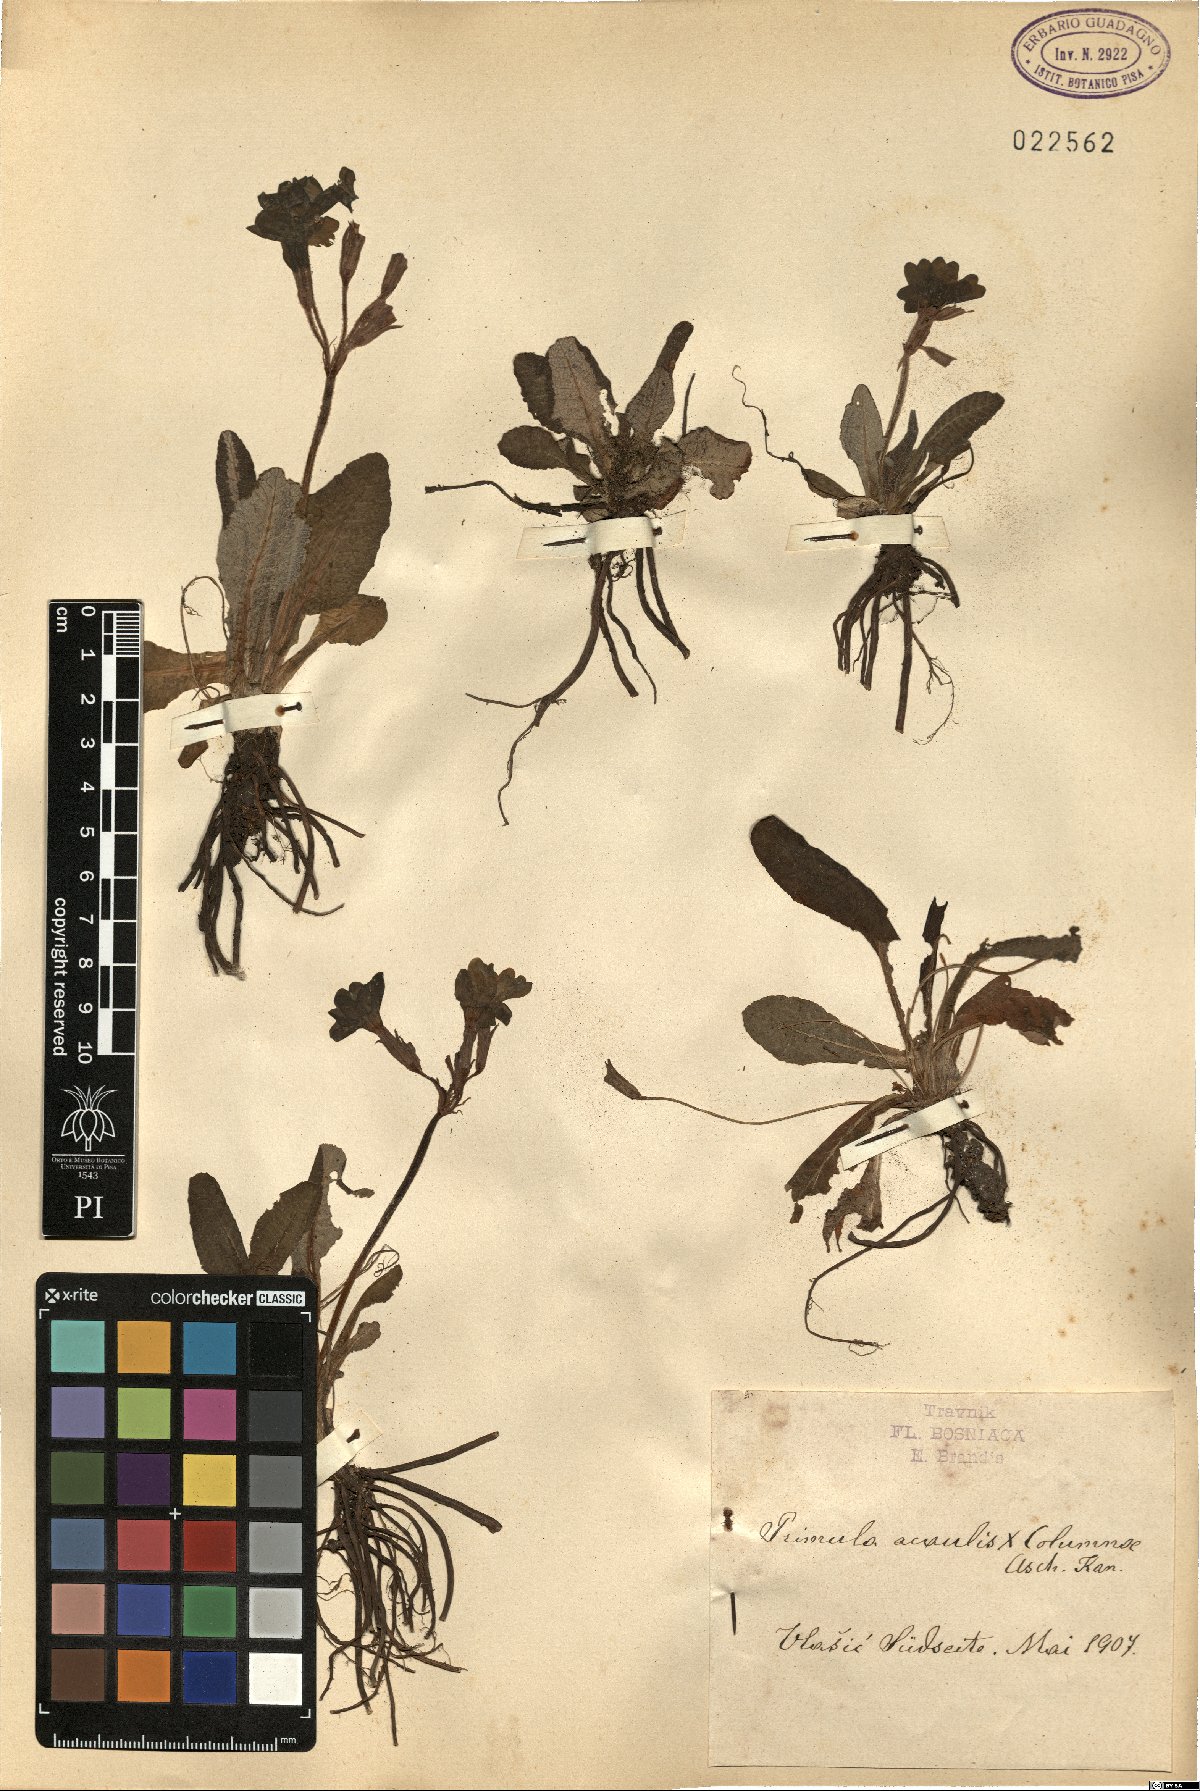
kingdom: Plantae
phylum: Tracheophyta
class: Magnoliopsida
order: Ericales
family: Primulaceae
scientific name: Primulaceae
